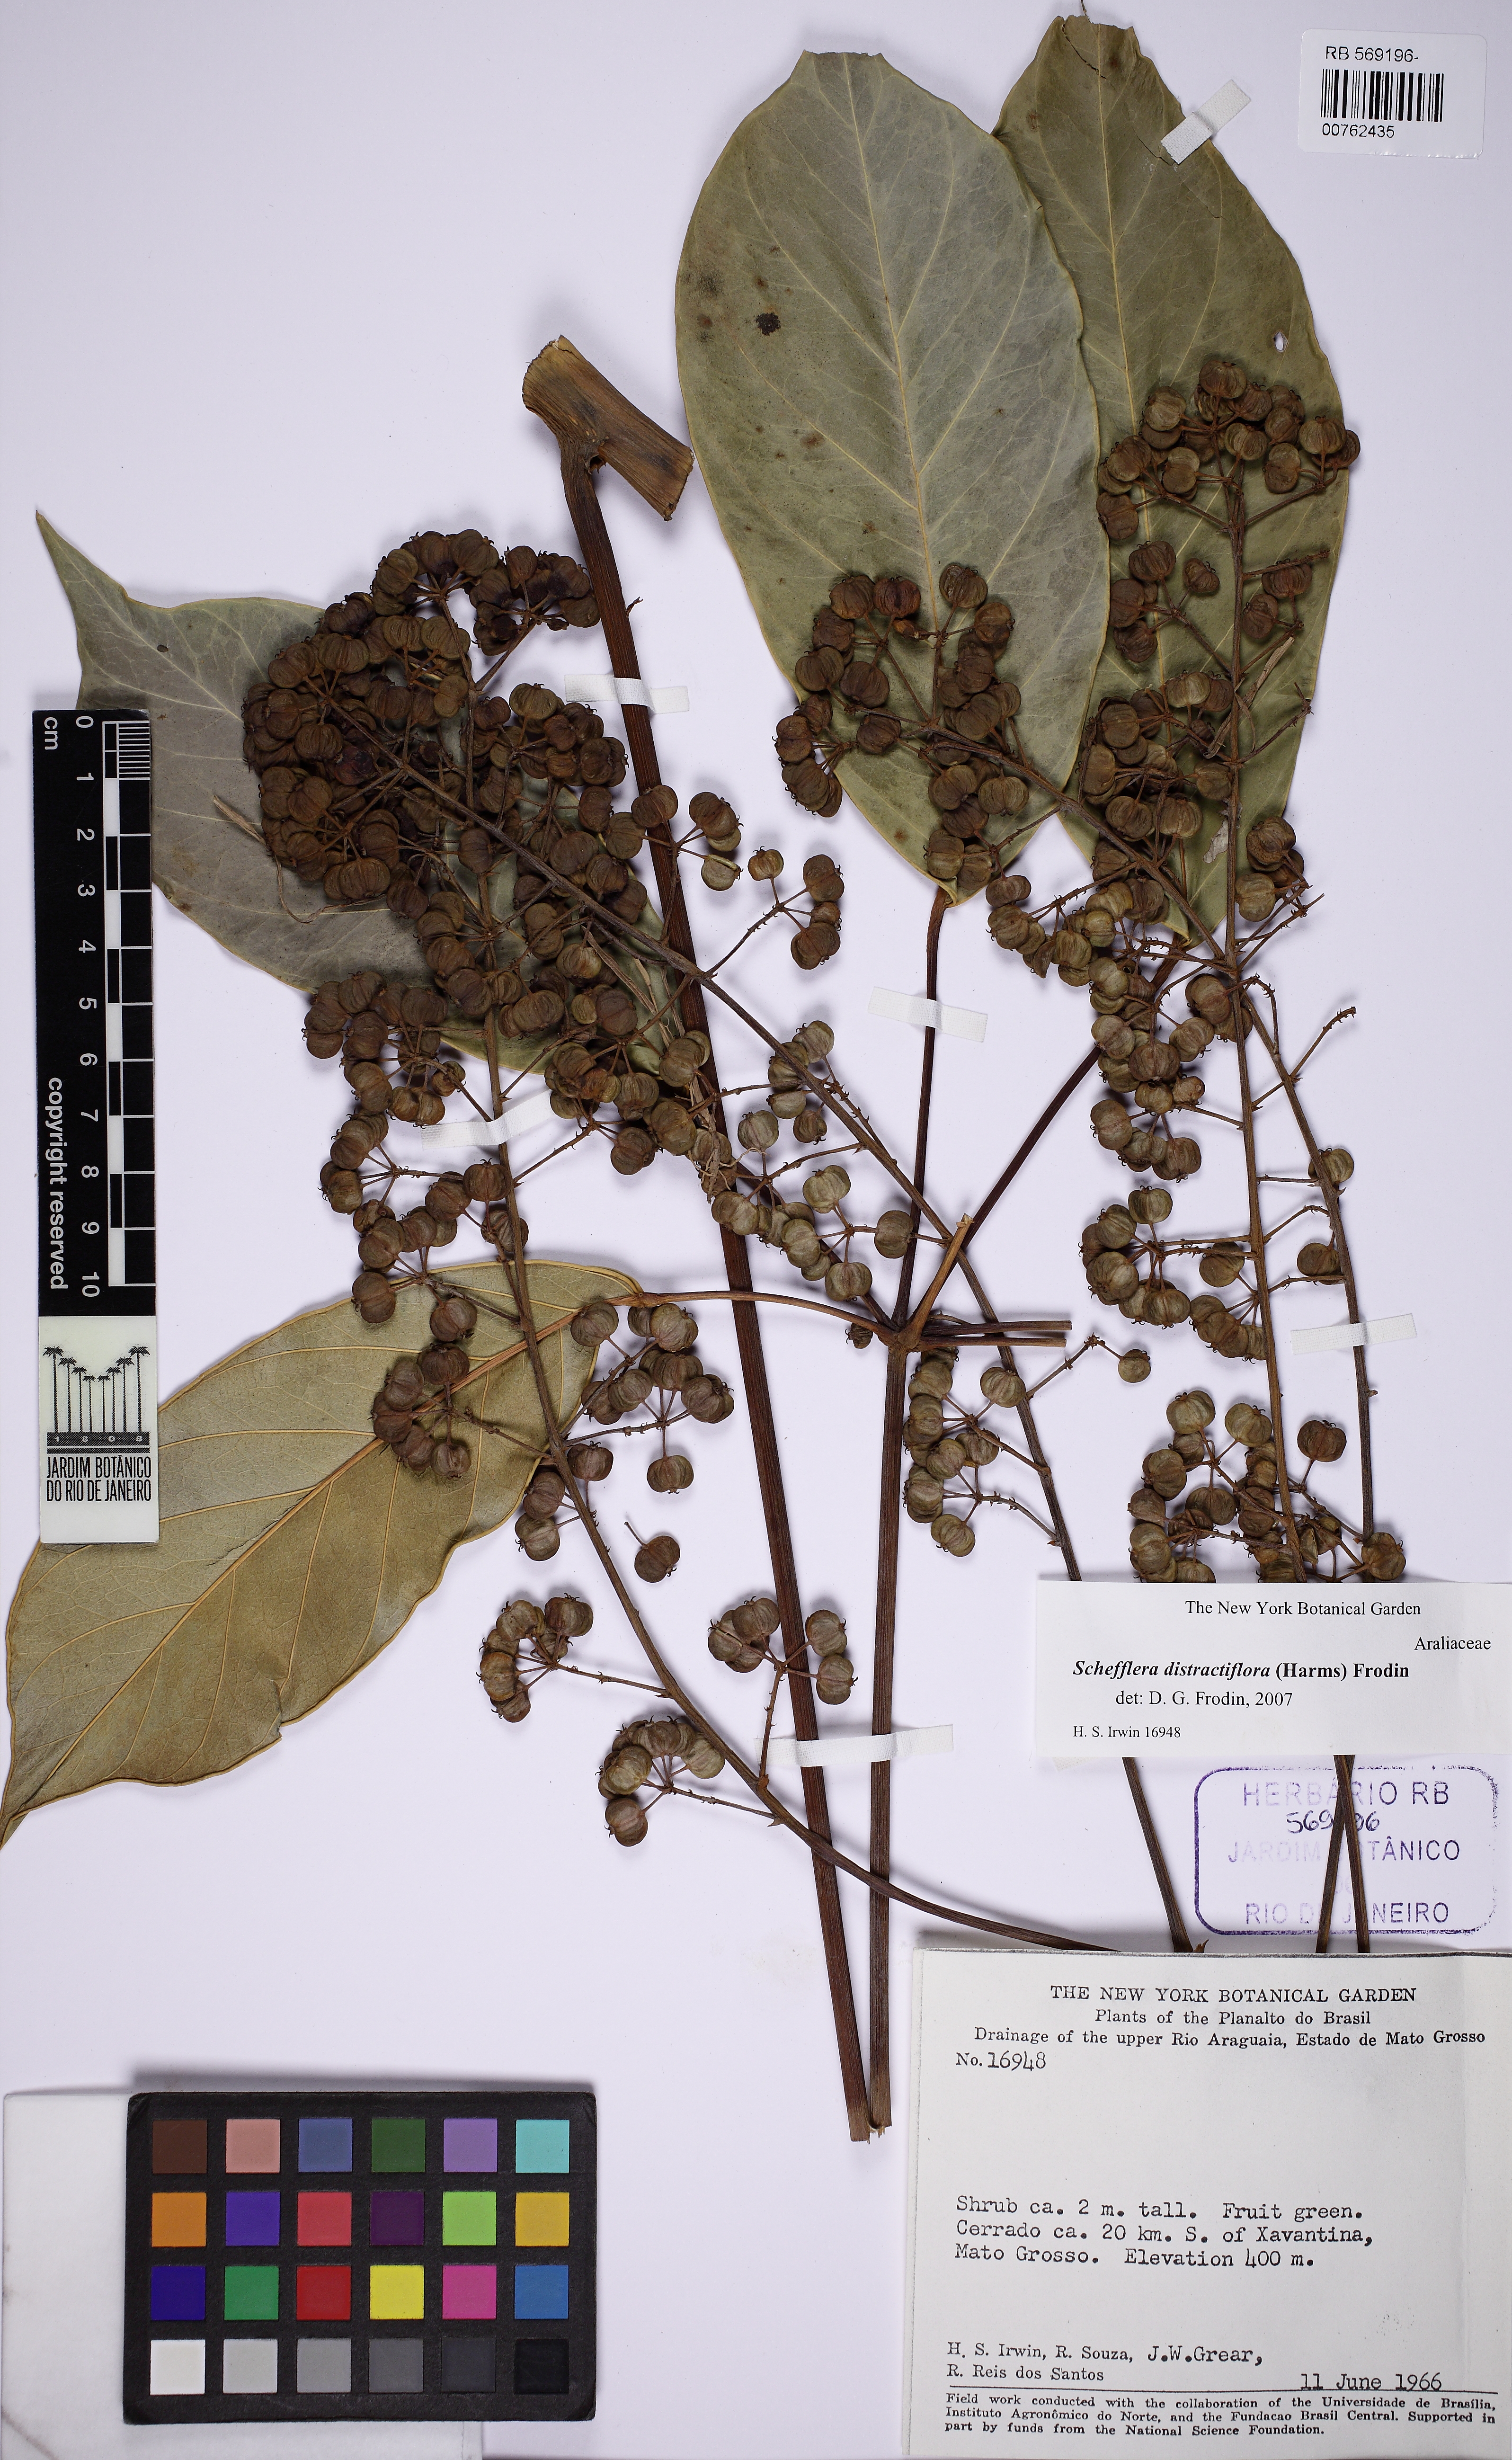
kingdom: Plantae
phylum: Tracheophyta
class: Magnoliopsida
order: Apiales
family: Araliaceae
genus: Didymopanax
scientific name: Didymopanax distractiflorus
